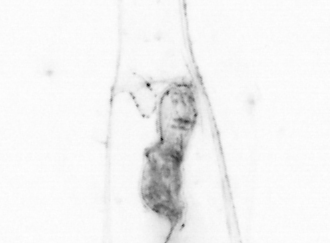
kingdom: Animalia
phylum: Chaetognatha
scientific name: Chaetognatha
